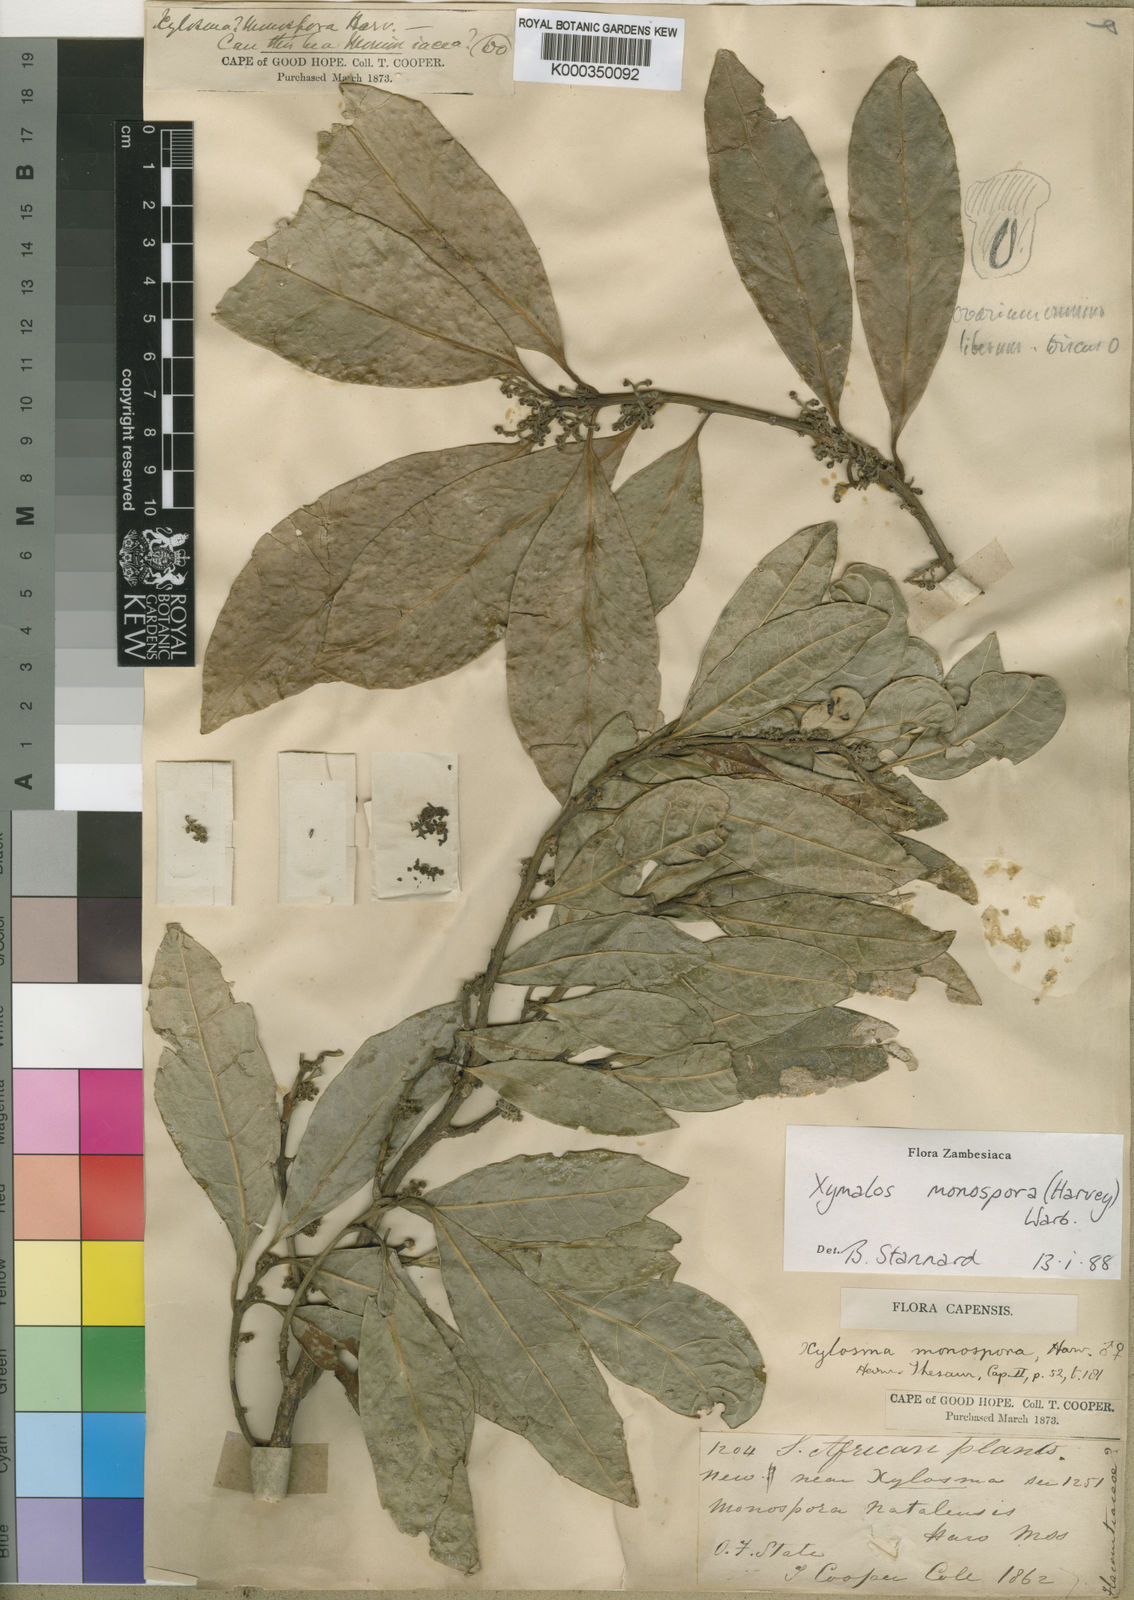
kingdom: Plantae
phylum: Tracheophyta
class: Magnoliopsida
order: Laurales
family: Monimiaceae
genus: Xymalos
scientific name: Xymalos
